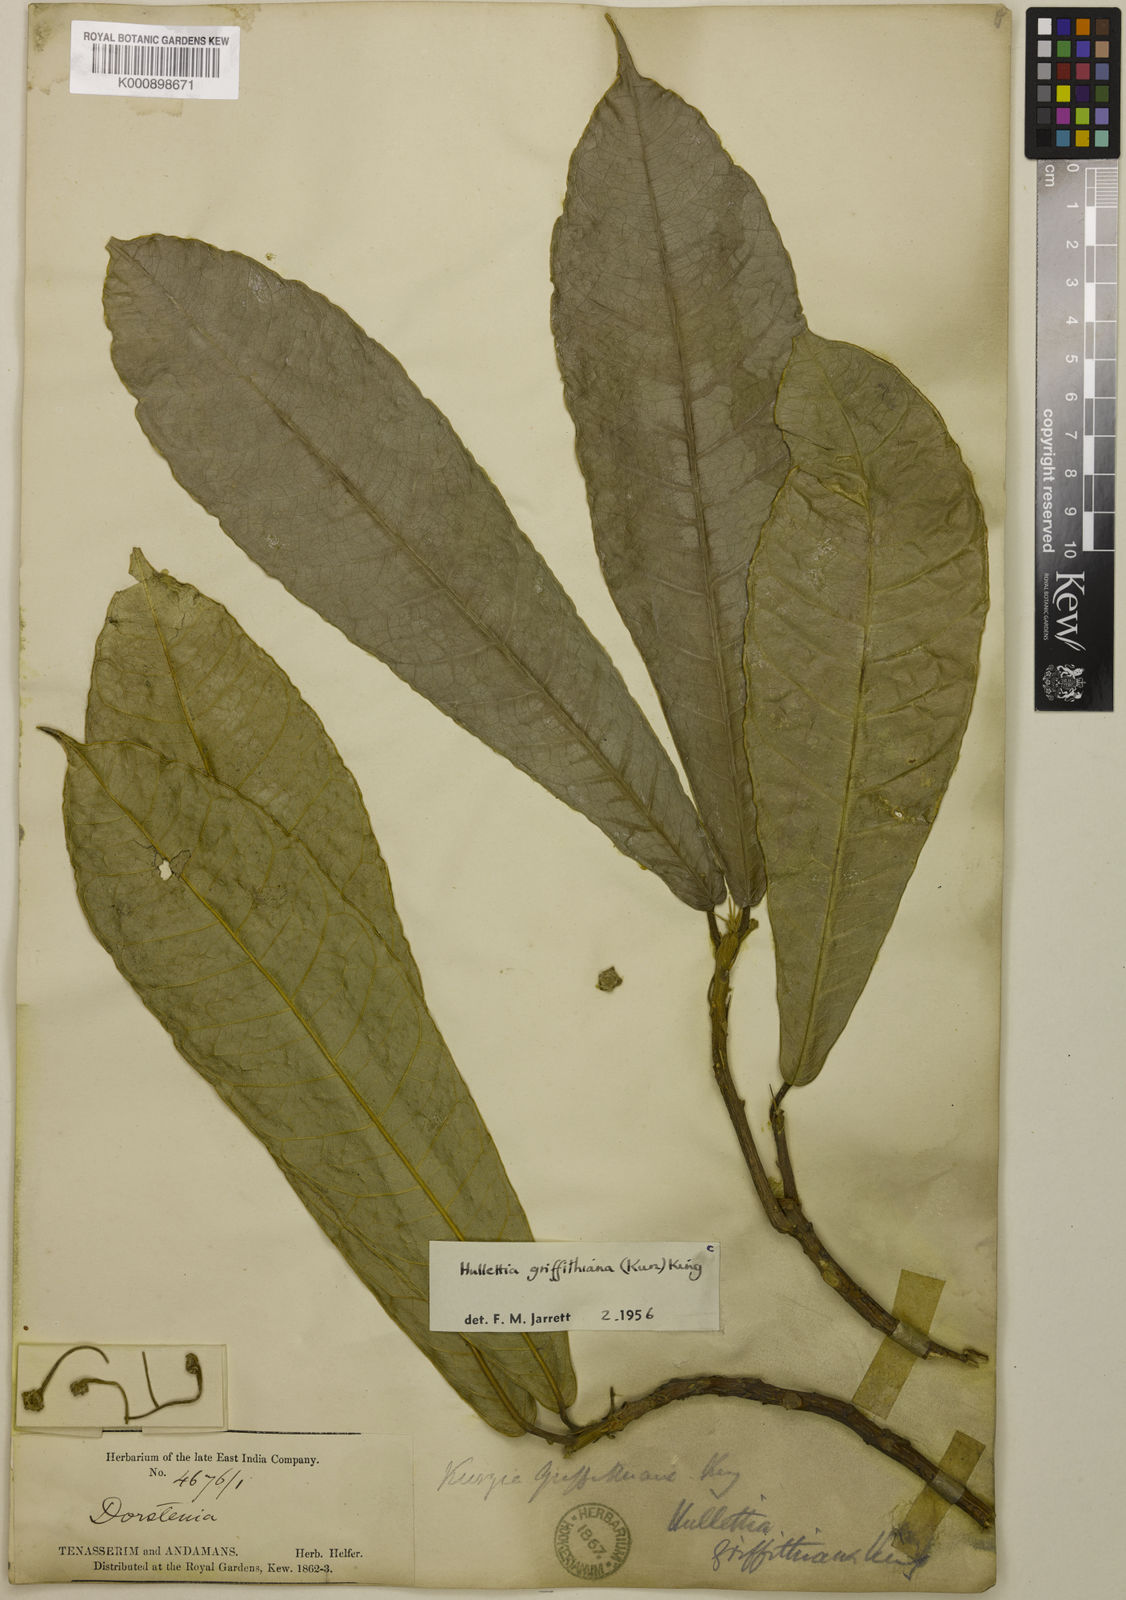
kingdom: Plantae
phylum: Tracheophyta
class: Magnoliopsida
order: Rosales
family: Moraceae
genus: Hullettia
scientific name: Hullettia
